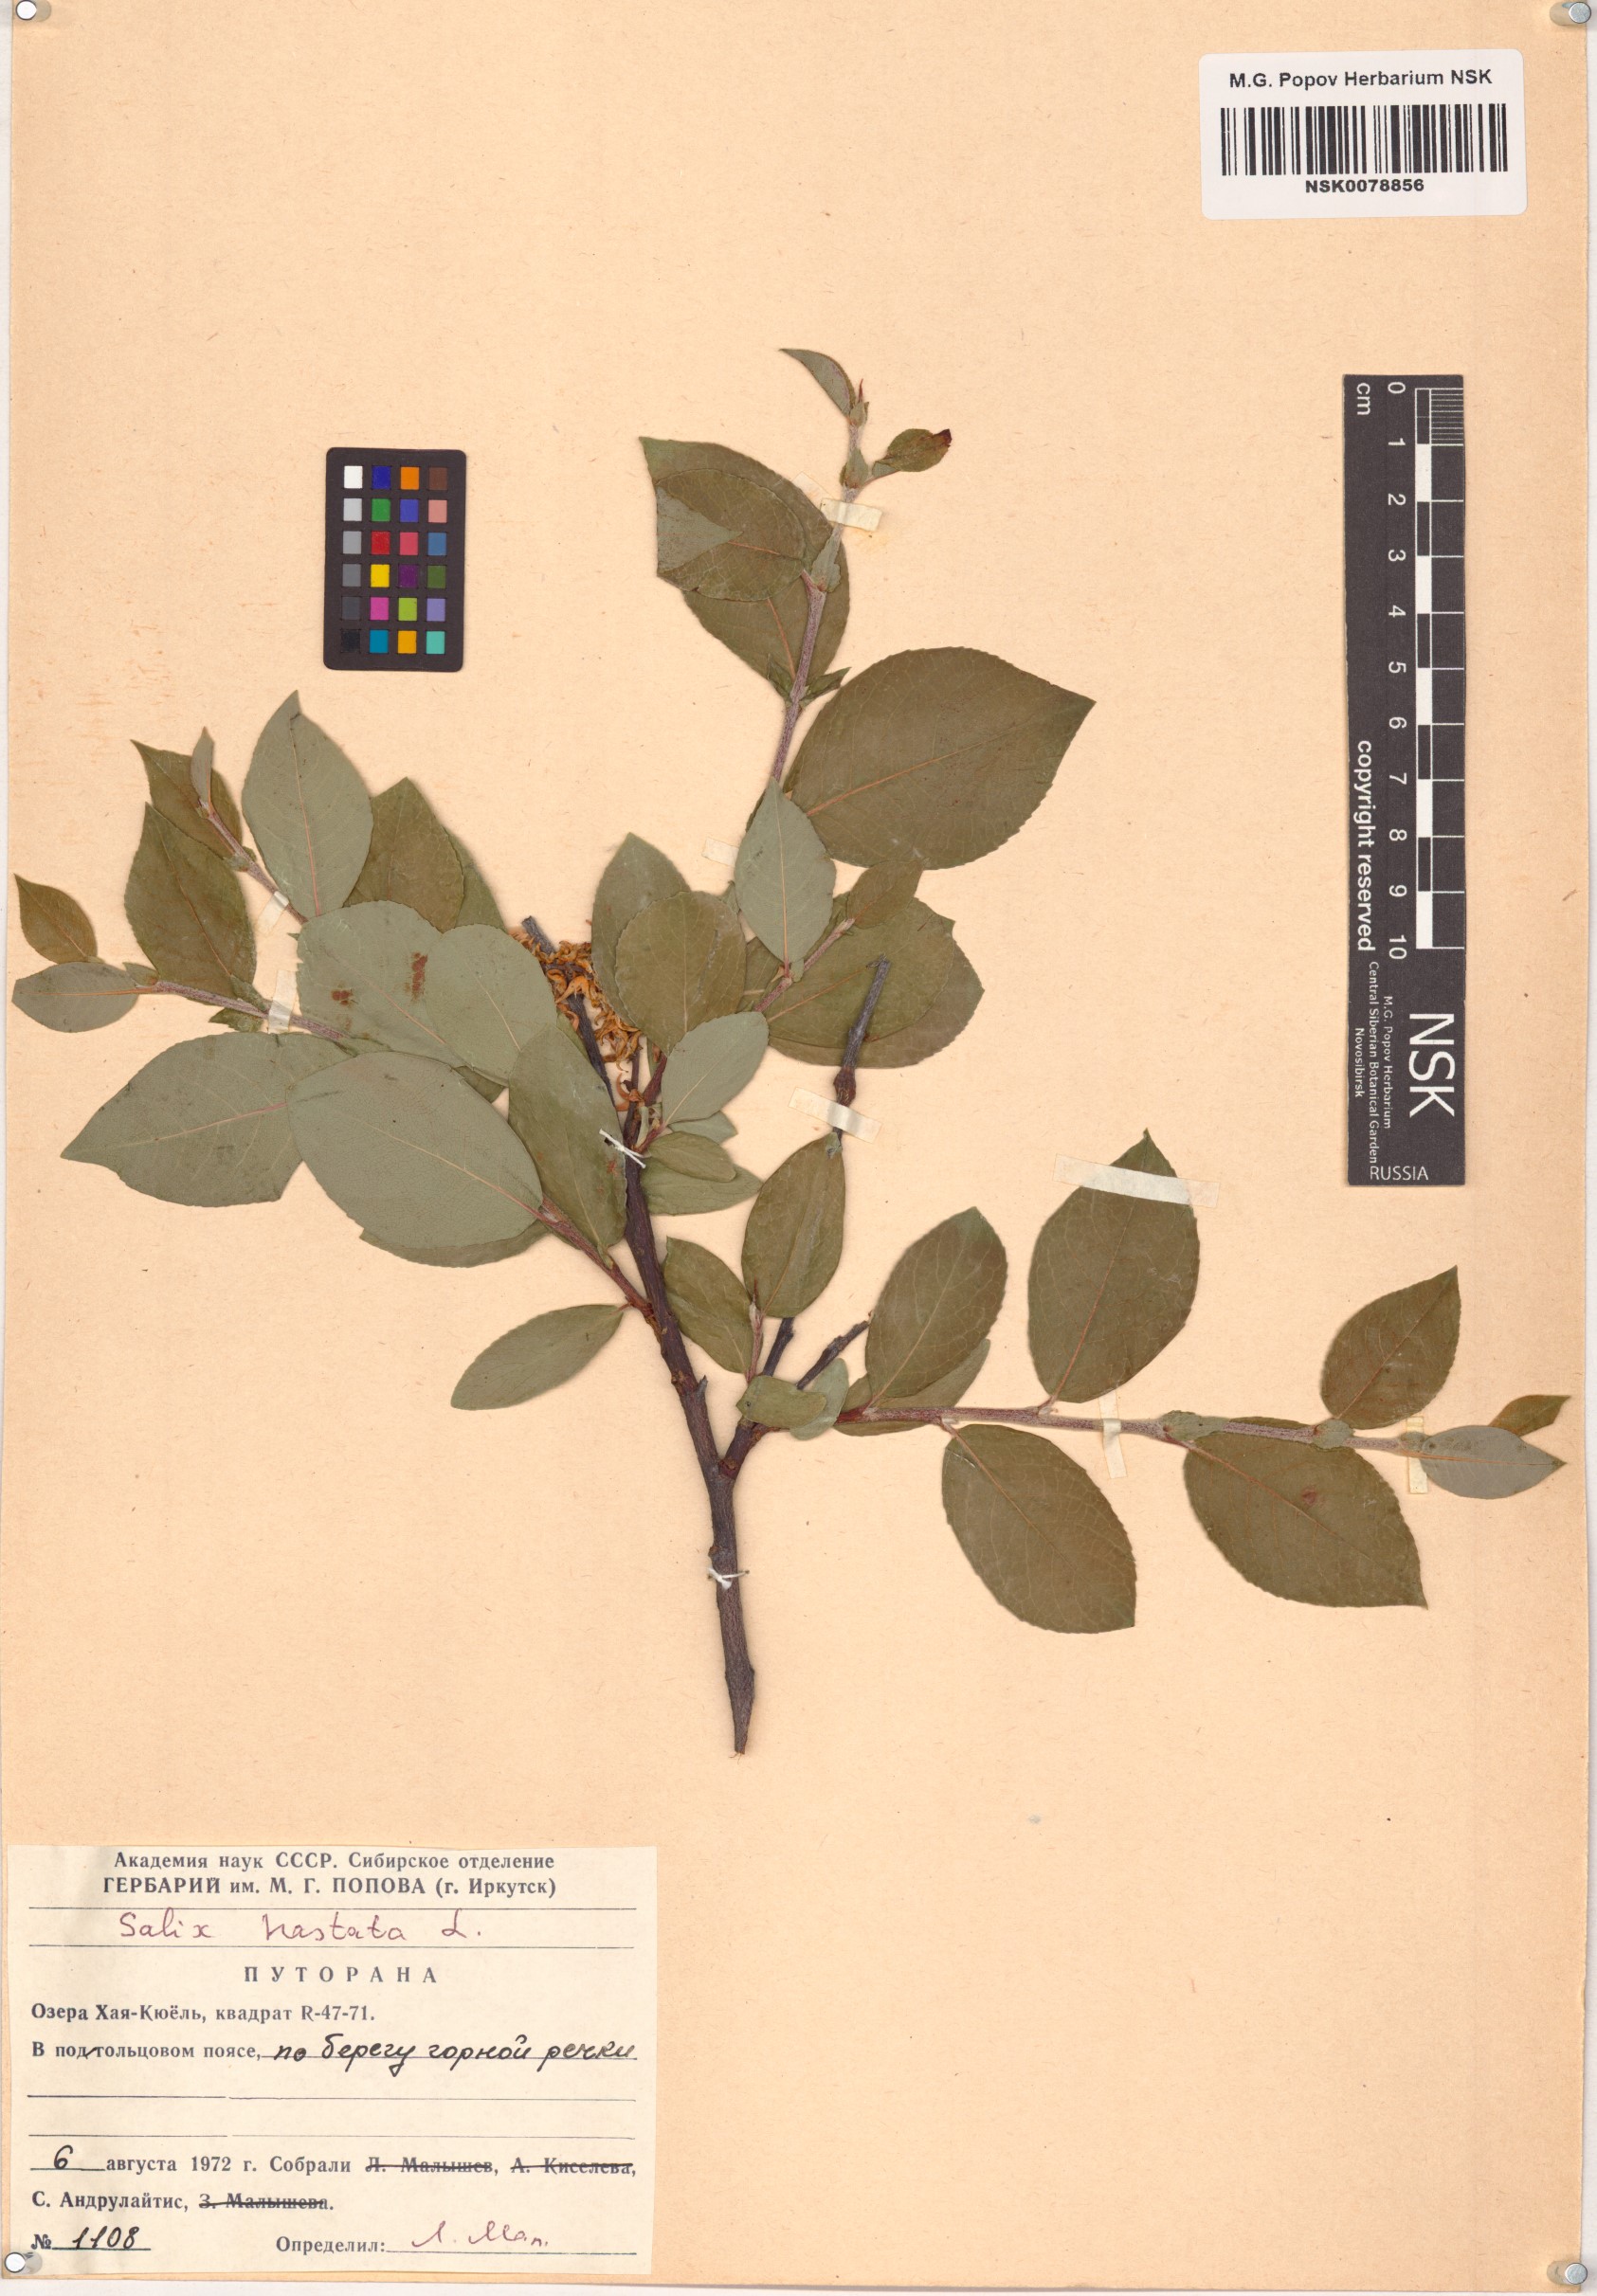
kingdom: Plantae
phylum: Tracheophyta
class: Magnoliopsida
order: Malpighiales
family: Salicaceae
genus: Salix
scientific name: Salix hastata
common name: Halberd willow
